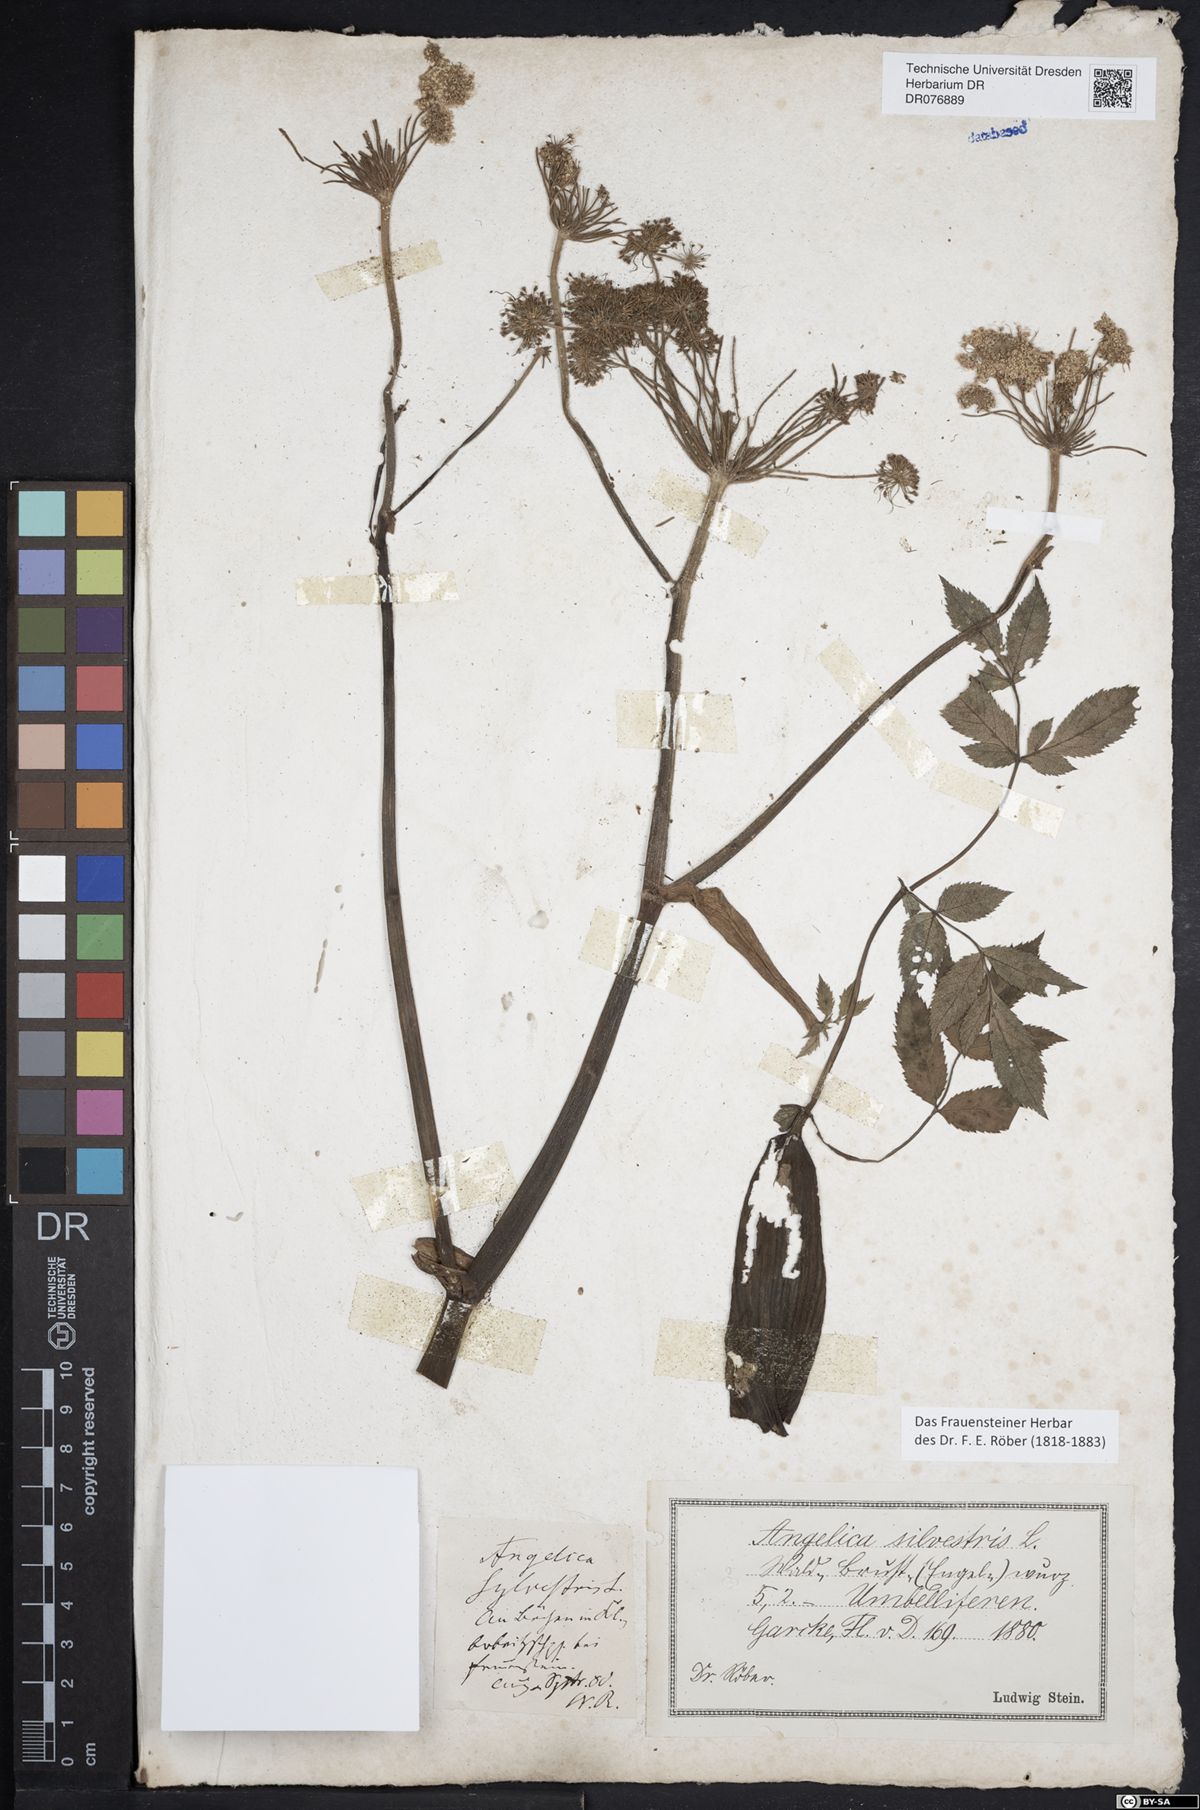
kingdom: Plantae
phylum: Tracheophyta
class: Magnoliopsida
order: Apiales
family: Apiaceae
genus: Angelica
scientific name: Angelica sylvestris
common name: Wild angelica
